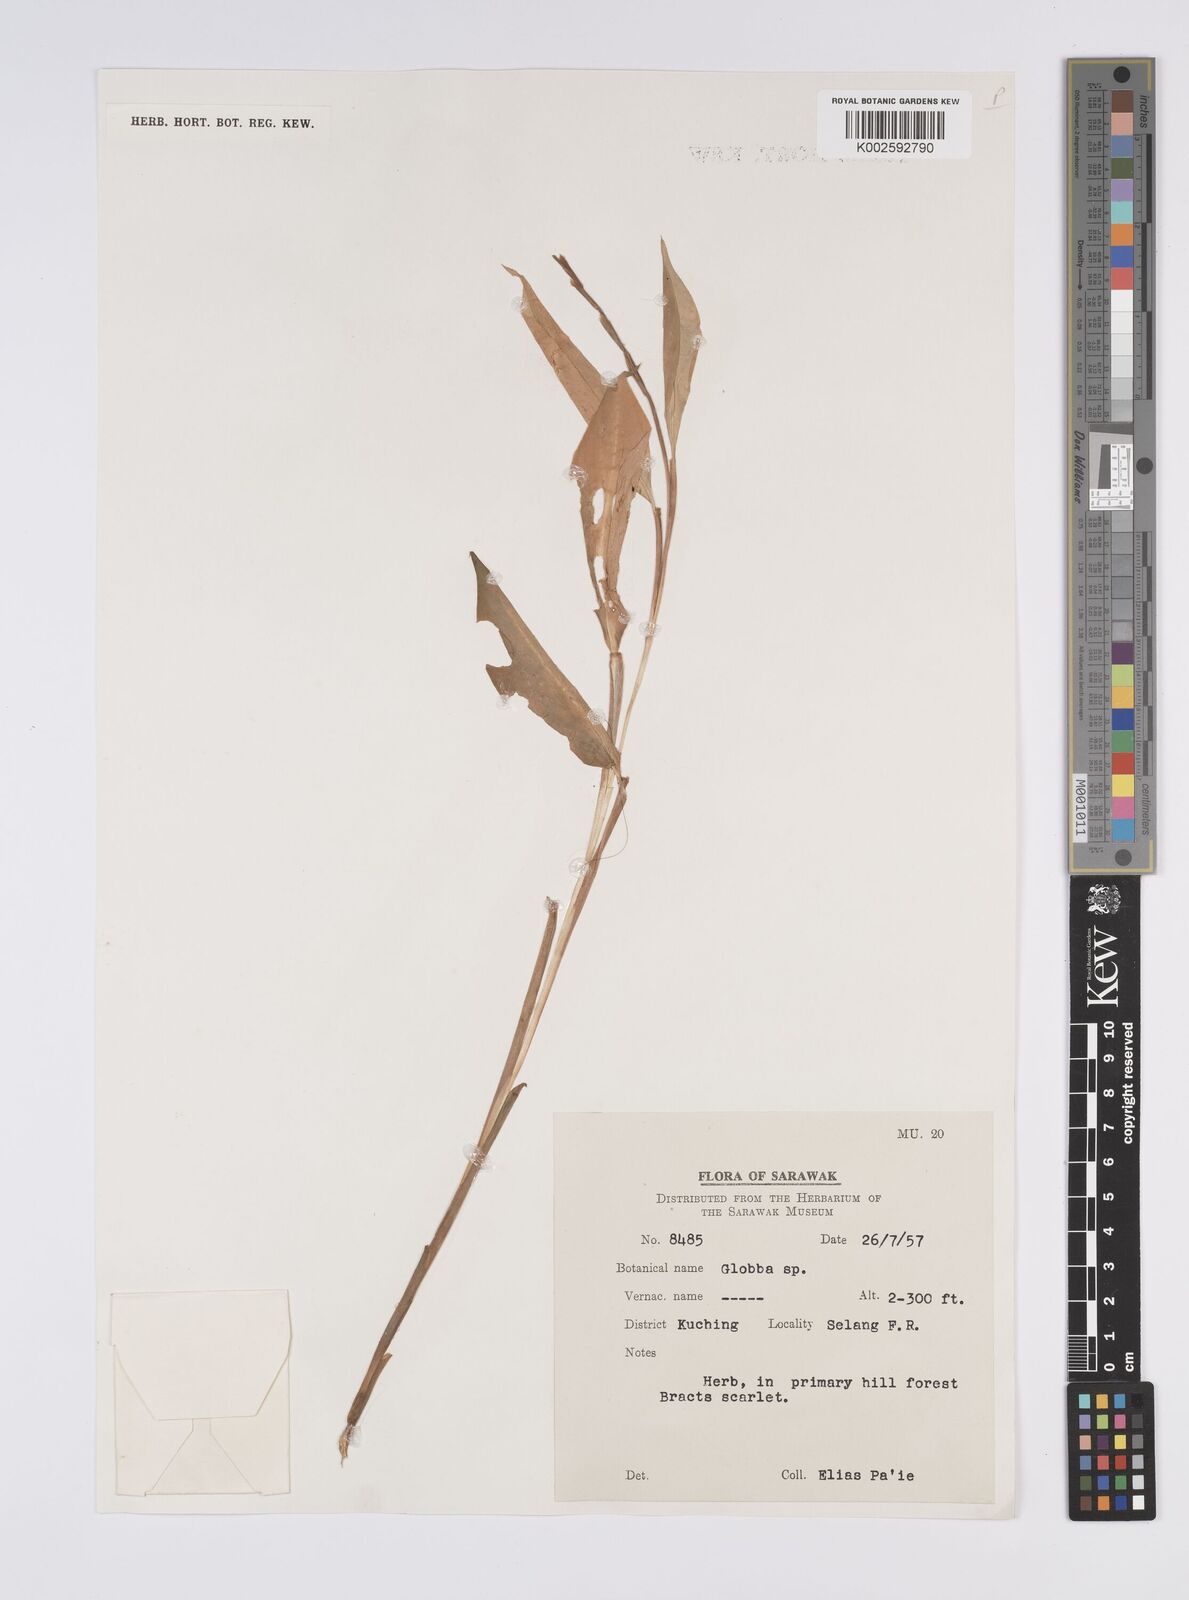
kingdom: Plantae
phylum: Tracheophyta
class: Liliopsida
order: Zingiberales
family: Zingiberaceae
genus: Globba
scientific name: Globba atrosanguinea
